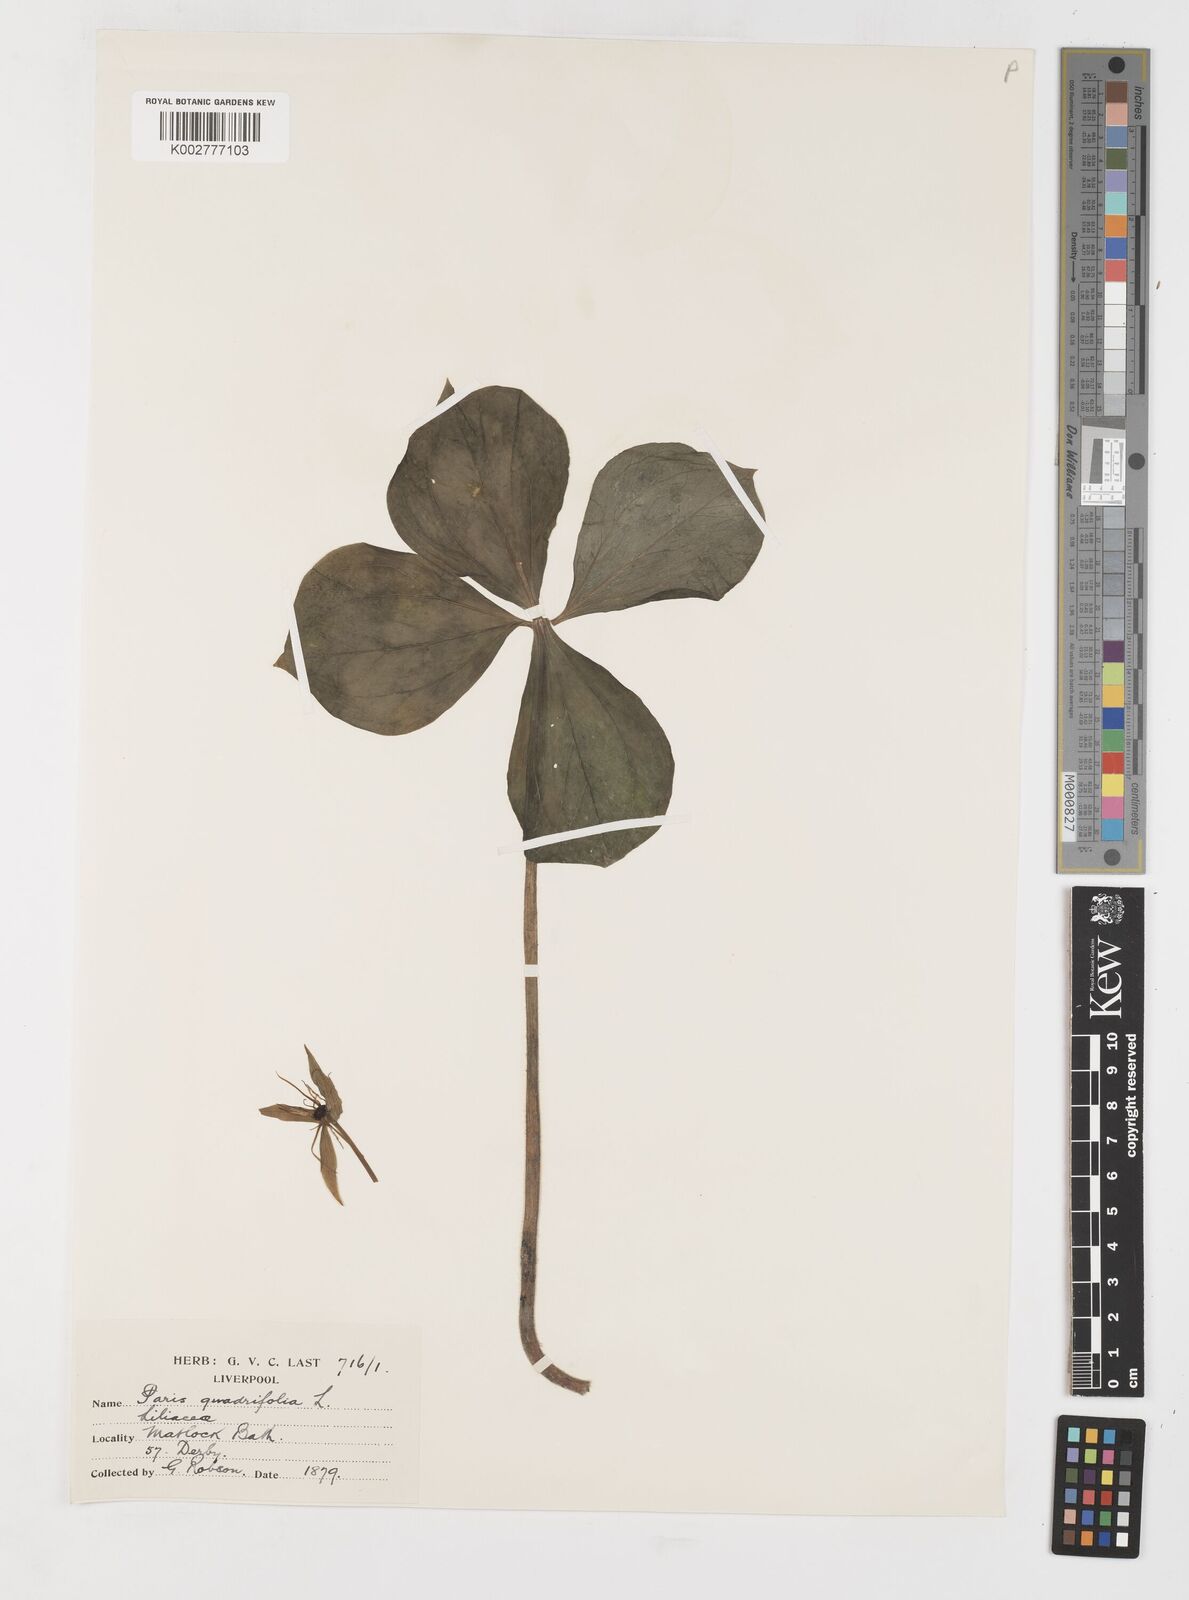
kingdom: Plantae
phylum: Tracheophyta
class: Liliopsida
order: Liliales
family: Melanthiaceae
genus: Paris
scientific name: Paris quadrifolia
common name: Herb-paris
